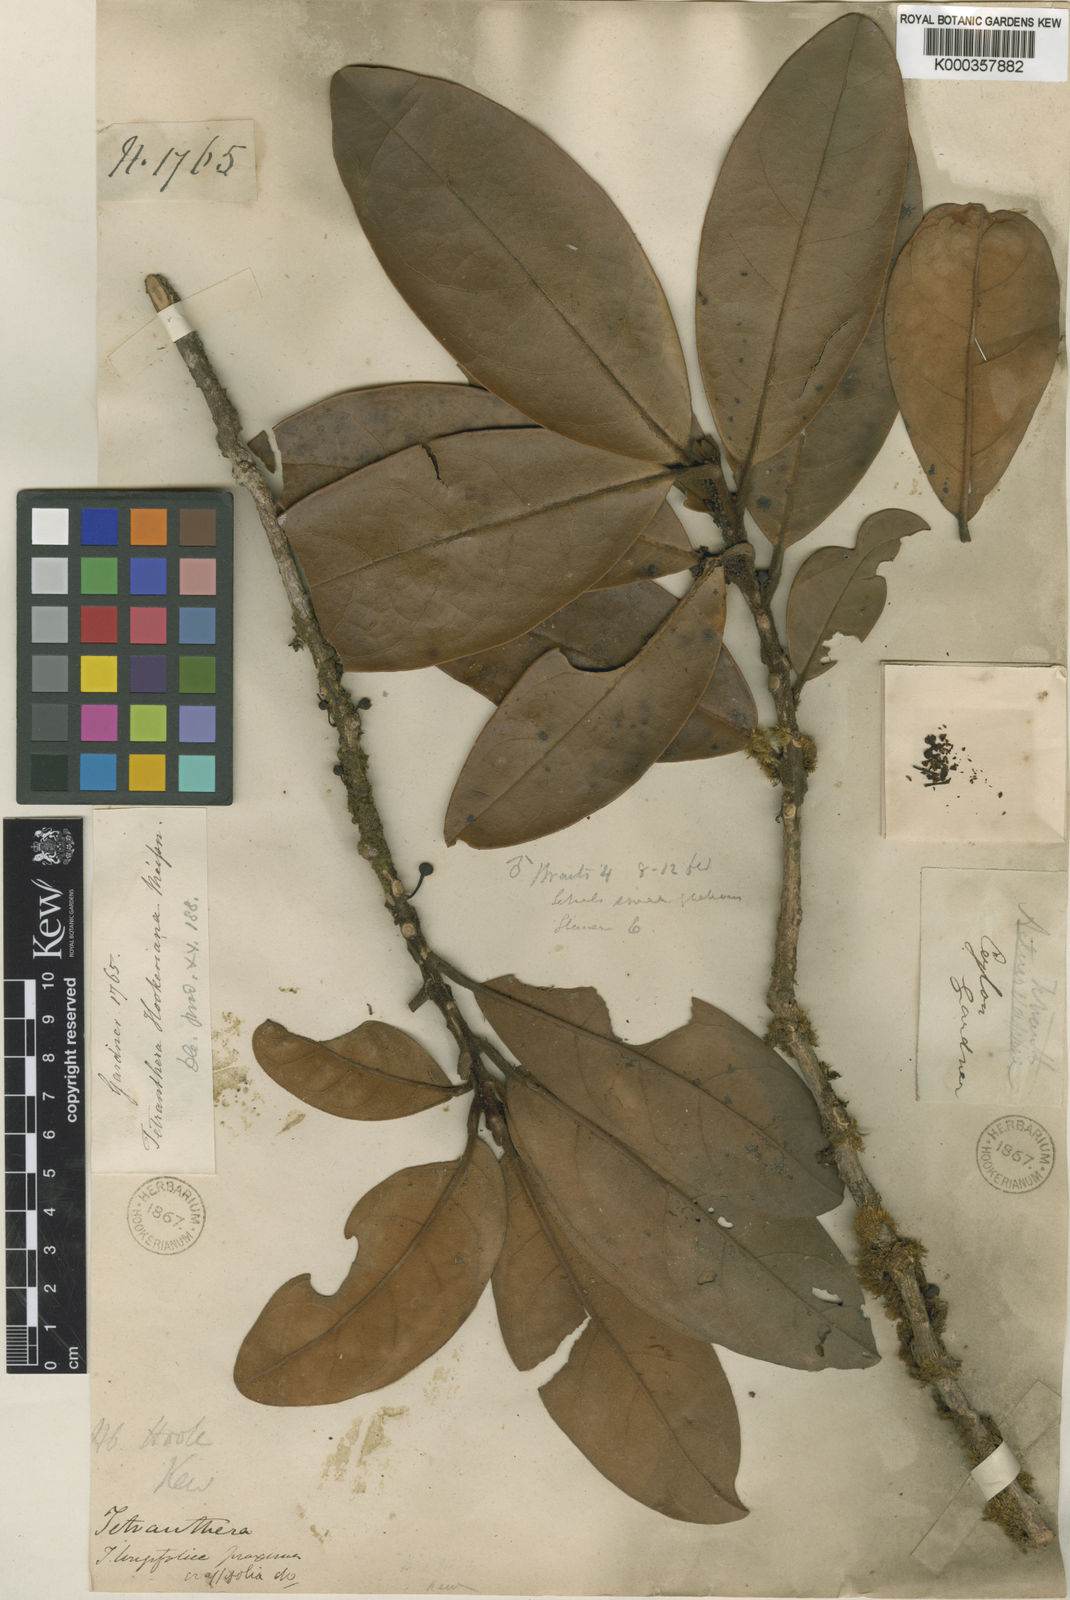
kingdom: Plantae
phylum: Tracheophyta
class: Magnoliopsida
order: Laurales
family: Lauraceae
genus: Litsea
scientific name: Litsea ligustrina
